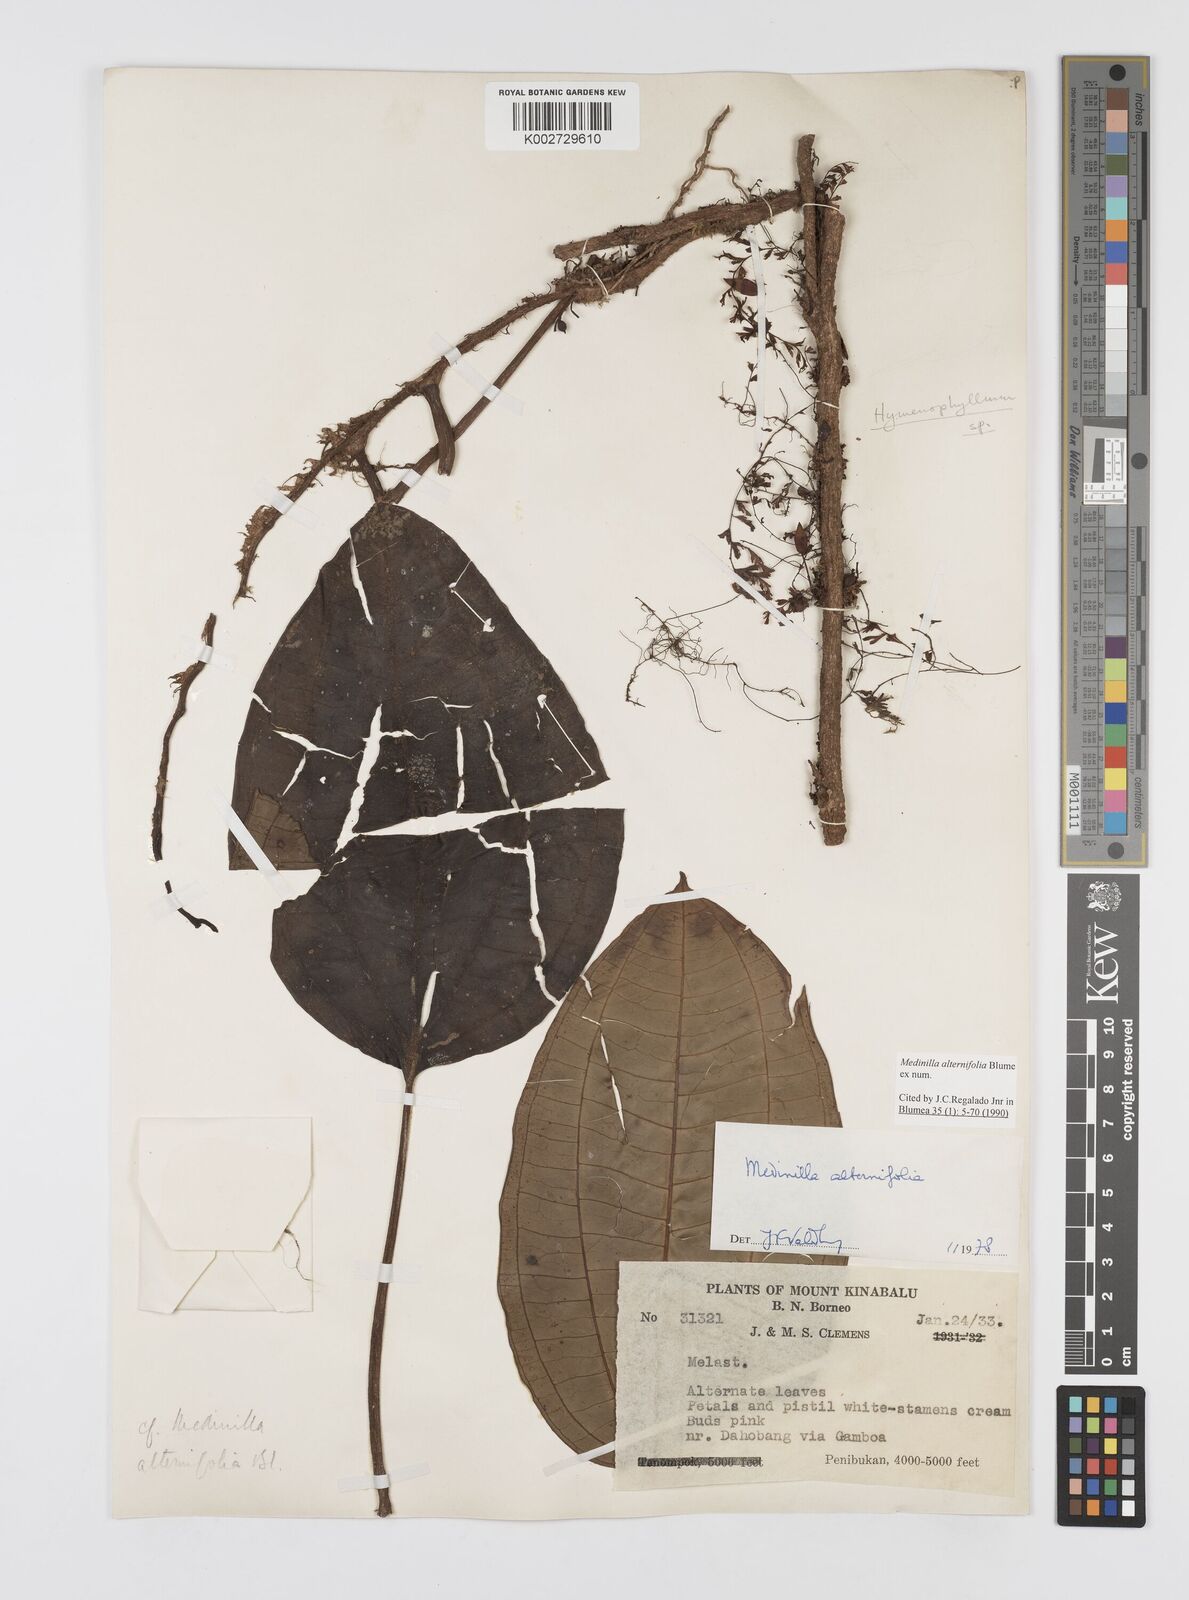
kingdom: Plantae
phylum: Tracheophyta
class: Magnoliopsida
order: Myrtales
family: Melastomataceae
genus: Heteroblemma
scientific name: Heteroblemma alternifolium
